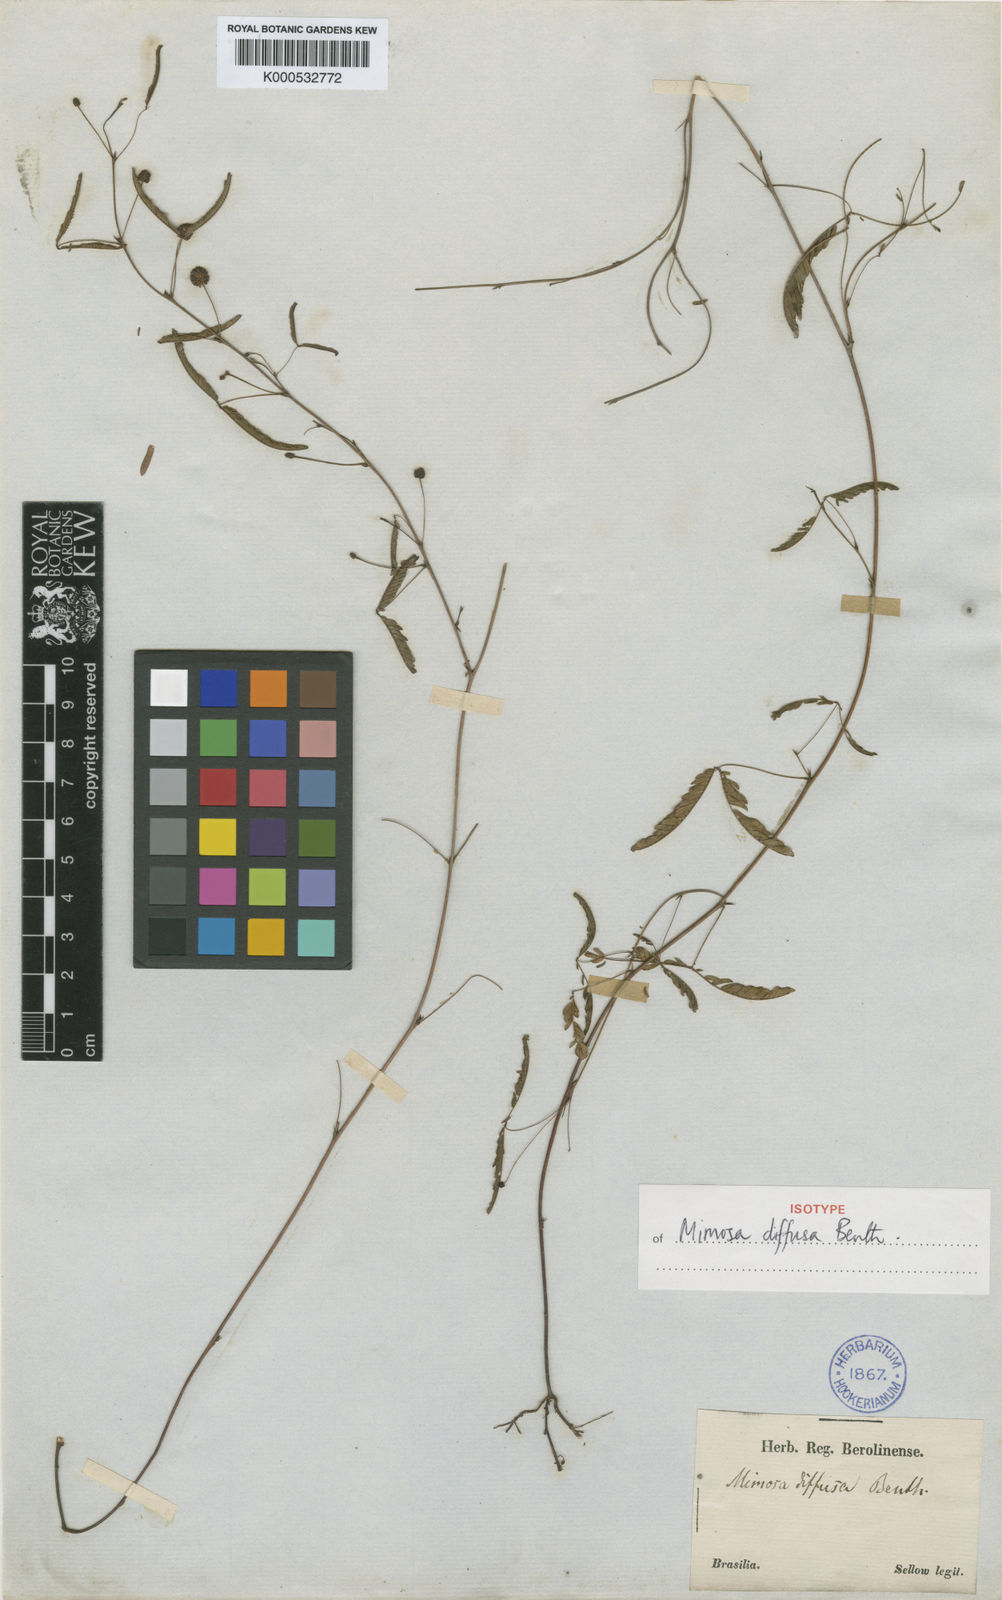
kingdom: Plantae
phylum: Tracheophyta
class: Magnoliopsida
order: Fabales
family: Fabaceae
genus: Mimosa
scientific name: Mimosa diffusa
